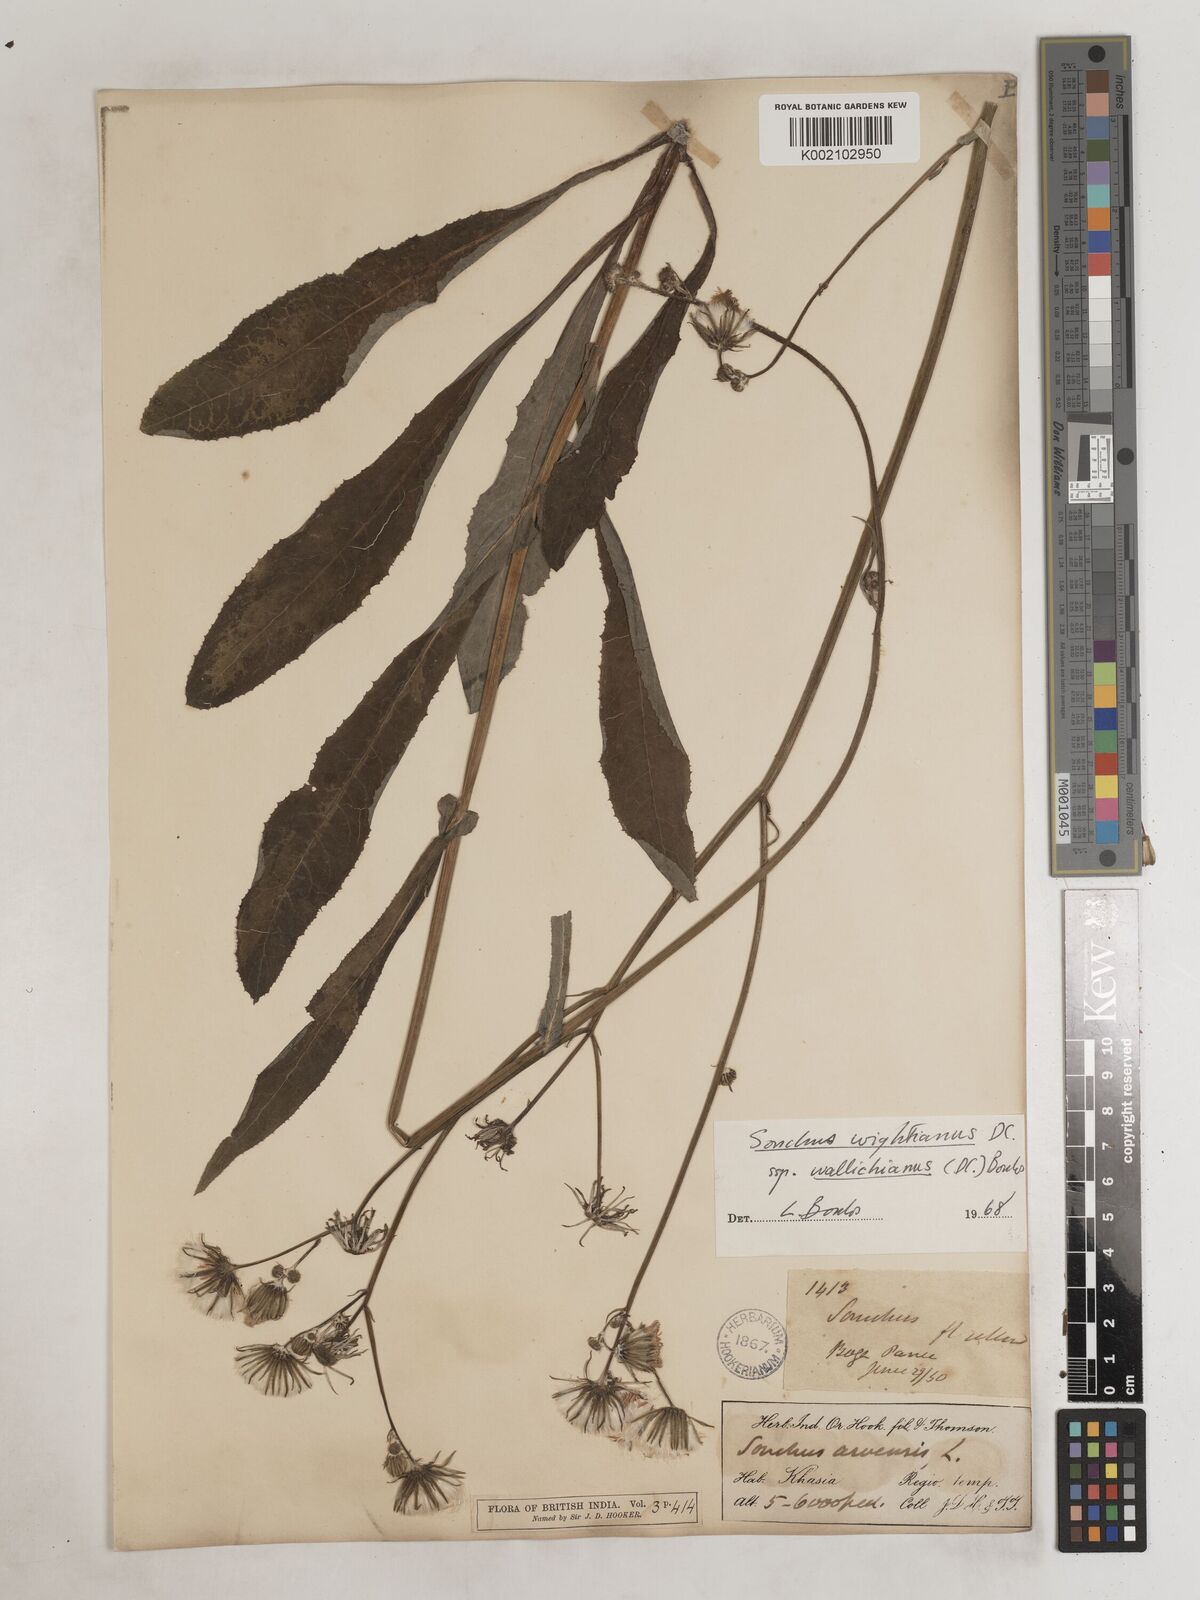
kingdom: Plantae
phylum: Tracheophyta
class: Magnoliopsida
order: Asterales
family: Asteraceae
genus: Sonchus
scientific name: Sonchus arvensis
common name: Perennial sow-thistle
